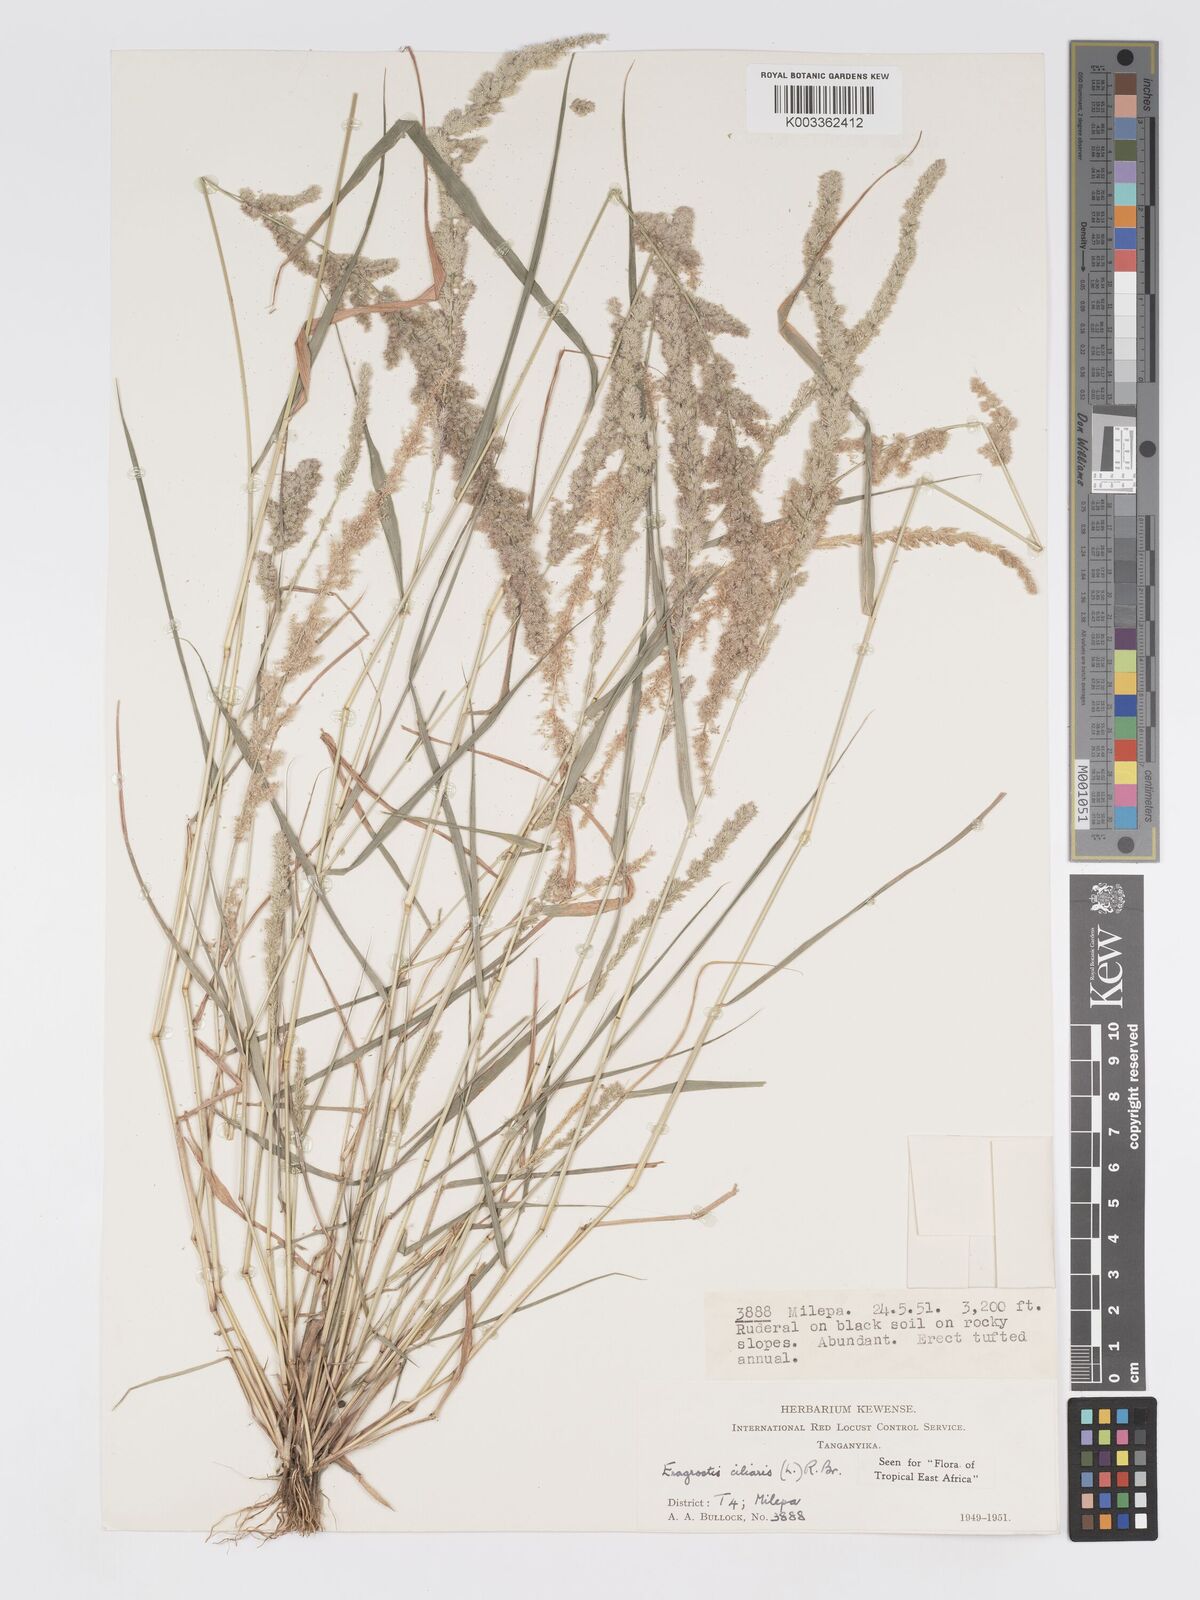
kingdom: Plantae
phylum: Tracheophyta
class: Liliopsida
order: Poales
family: Poaceae
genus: Eragrostis
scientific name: Eragrostis ciliaris
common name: Gophertail lovegrass
